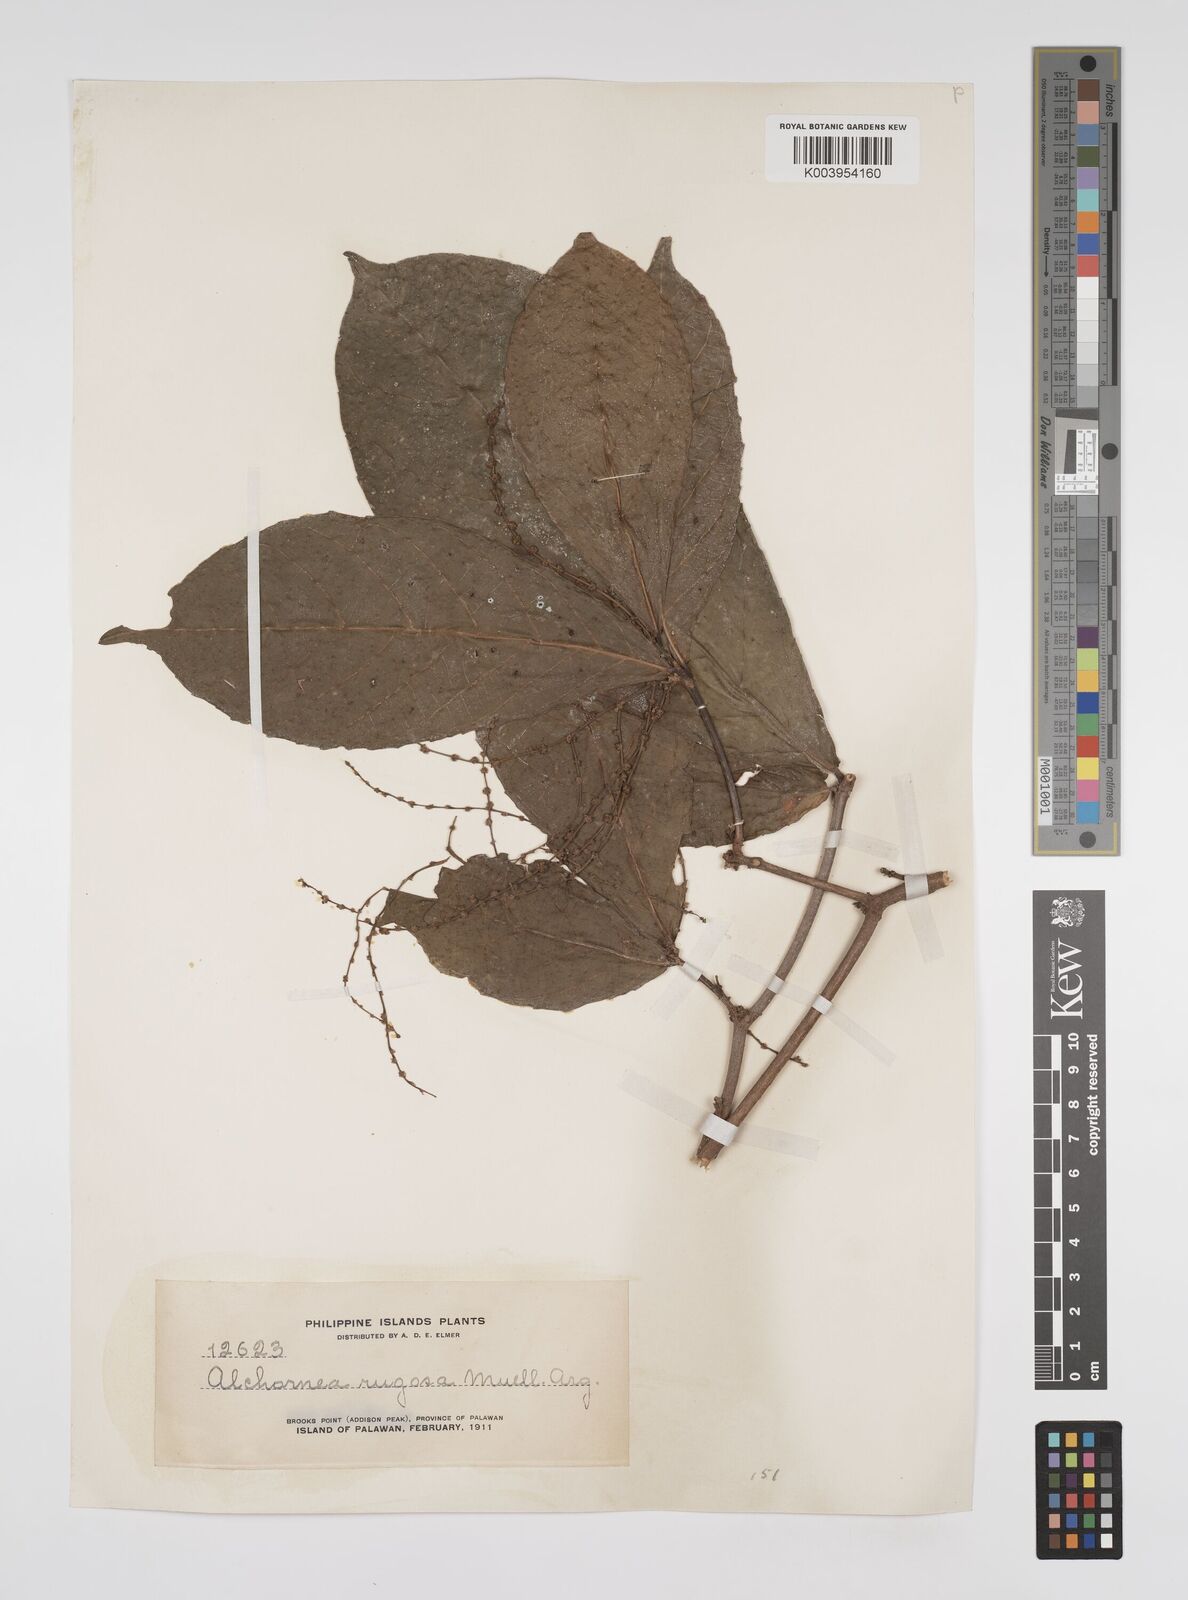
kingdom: Plantae
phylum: Tracheophyta
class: Magnoliopsida
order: Malpighiales
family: Euphorbiaceae
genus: Alchornea
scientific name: Alchornea rugosa
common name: Alchorntree
